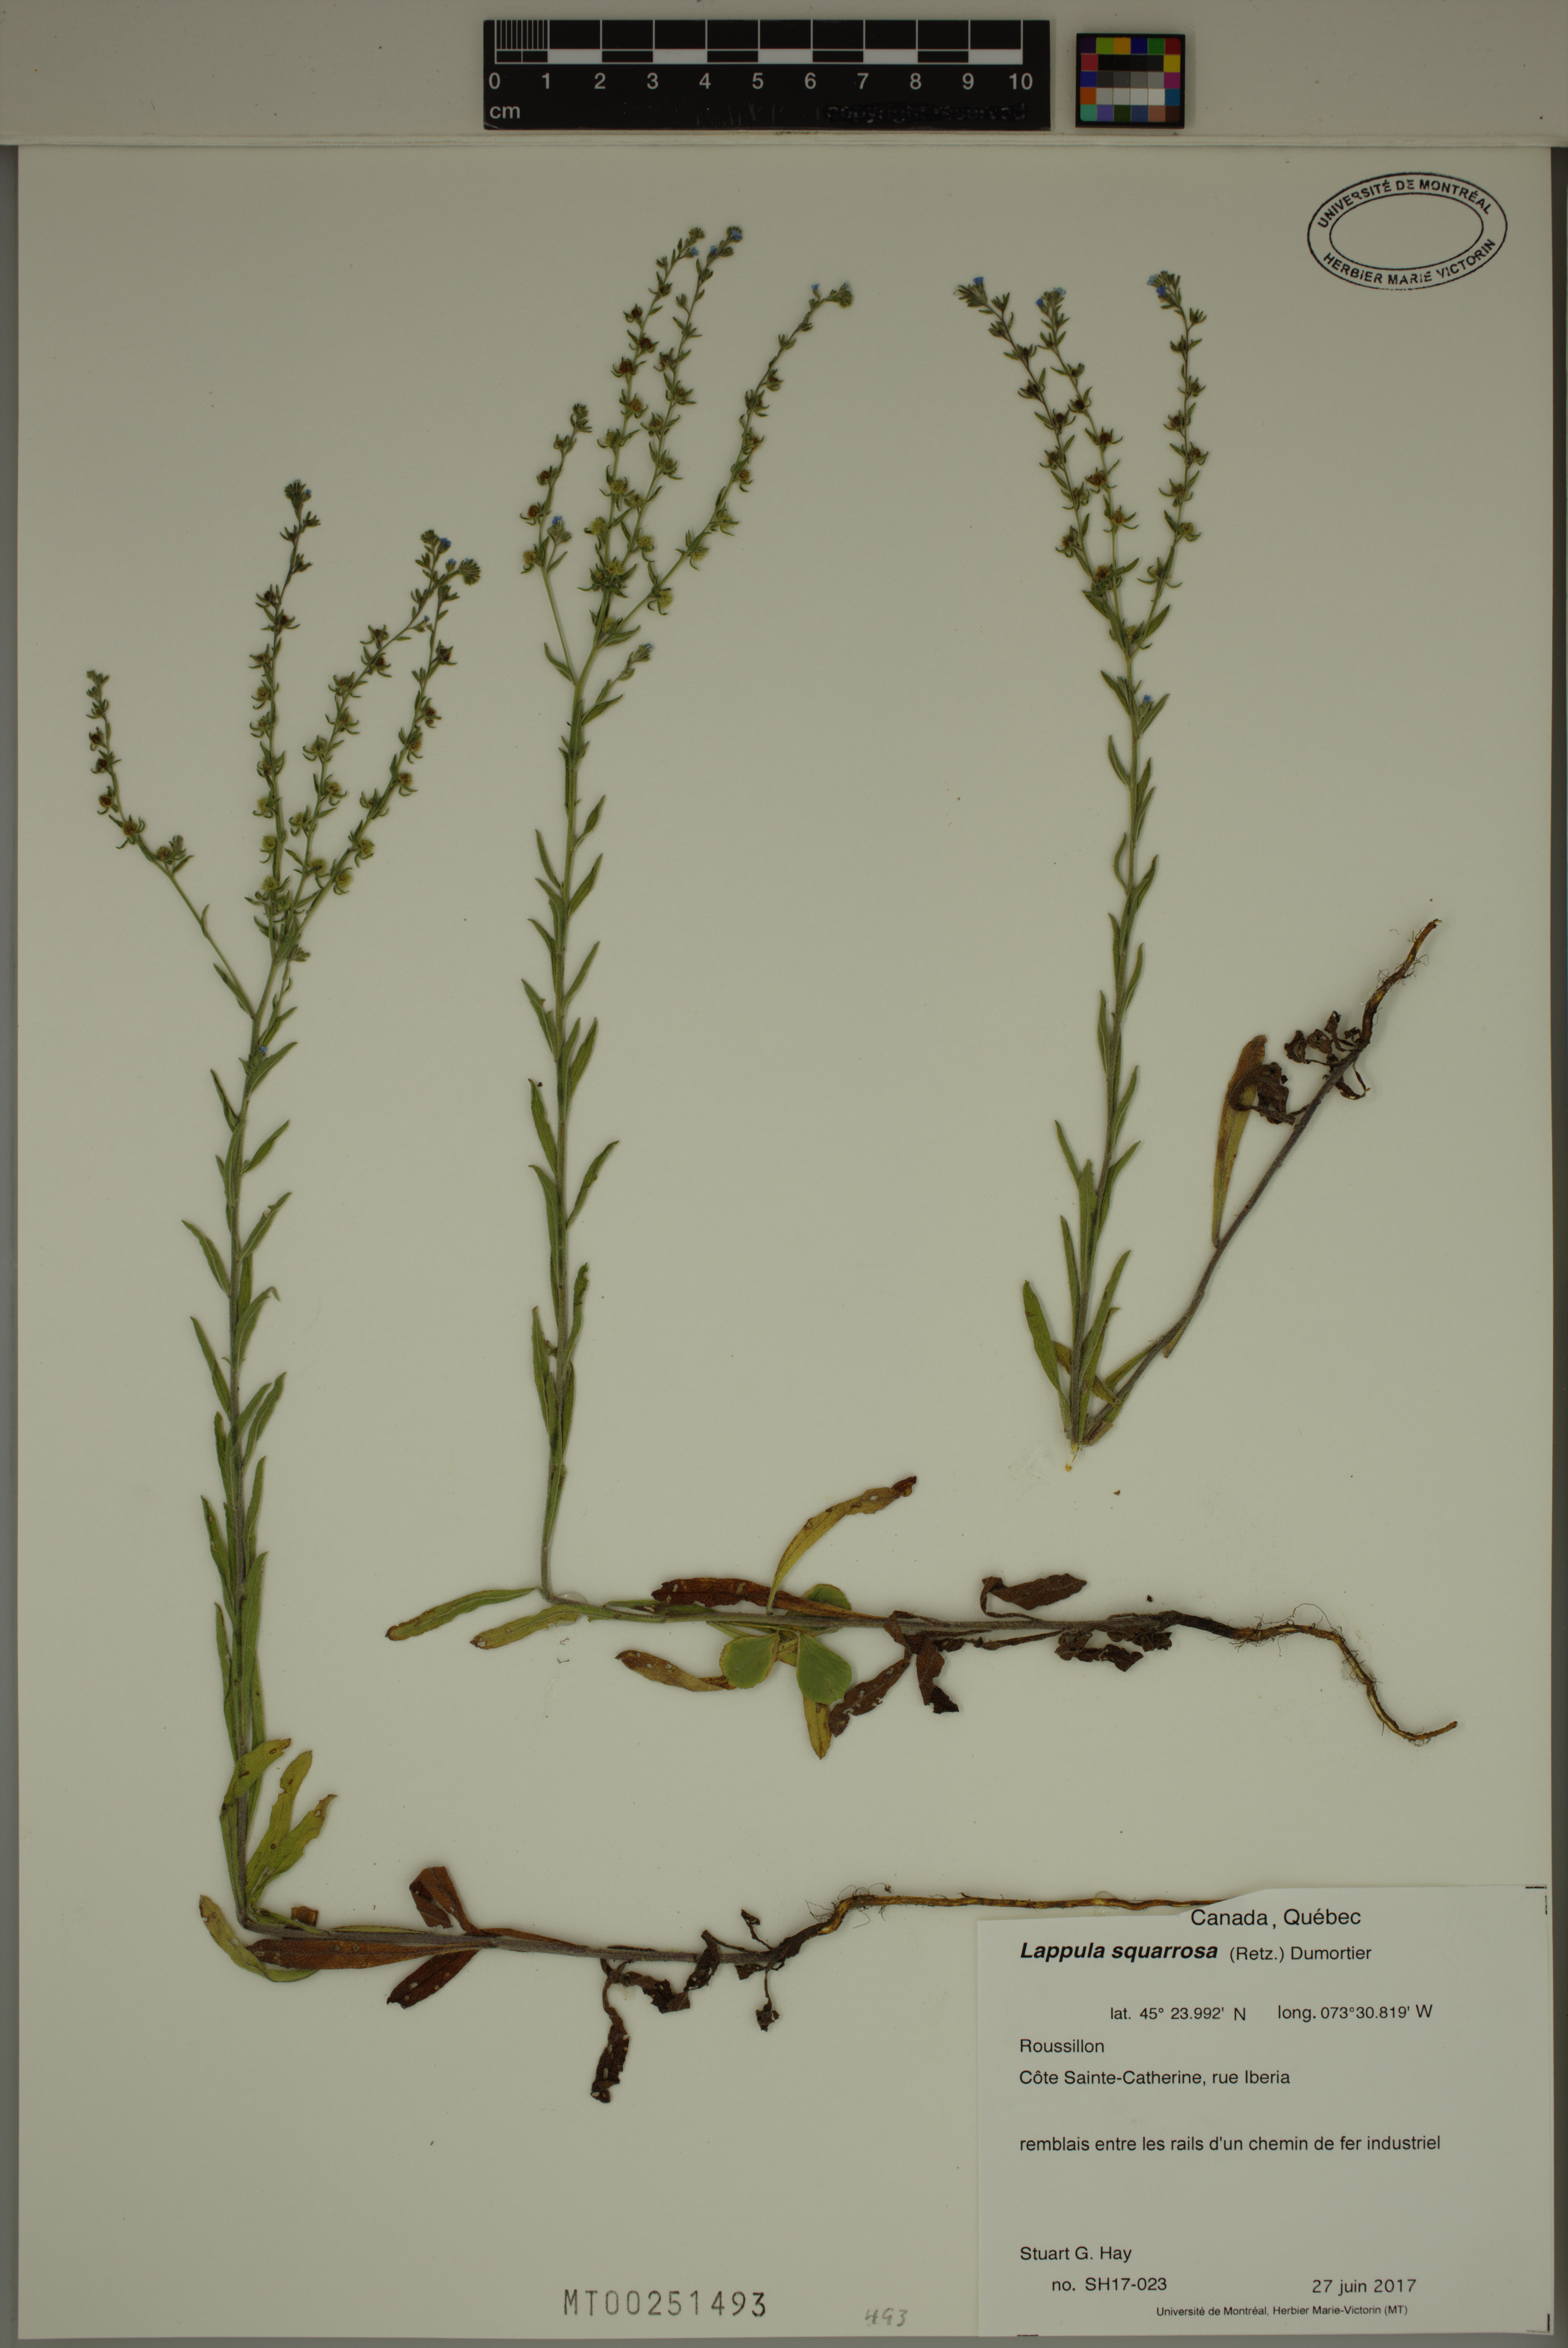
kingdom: Plantae
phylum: Tracheophyta
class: Magnoliopsida
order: Boraginales
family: Boraginaceae
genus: Lappula
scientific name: Lappula squarrosa
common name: European stickseed
